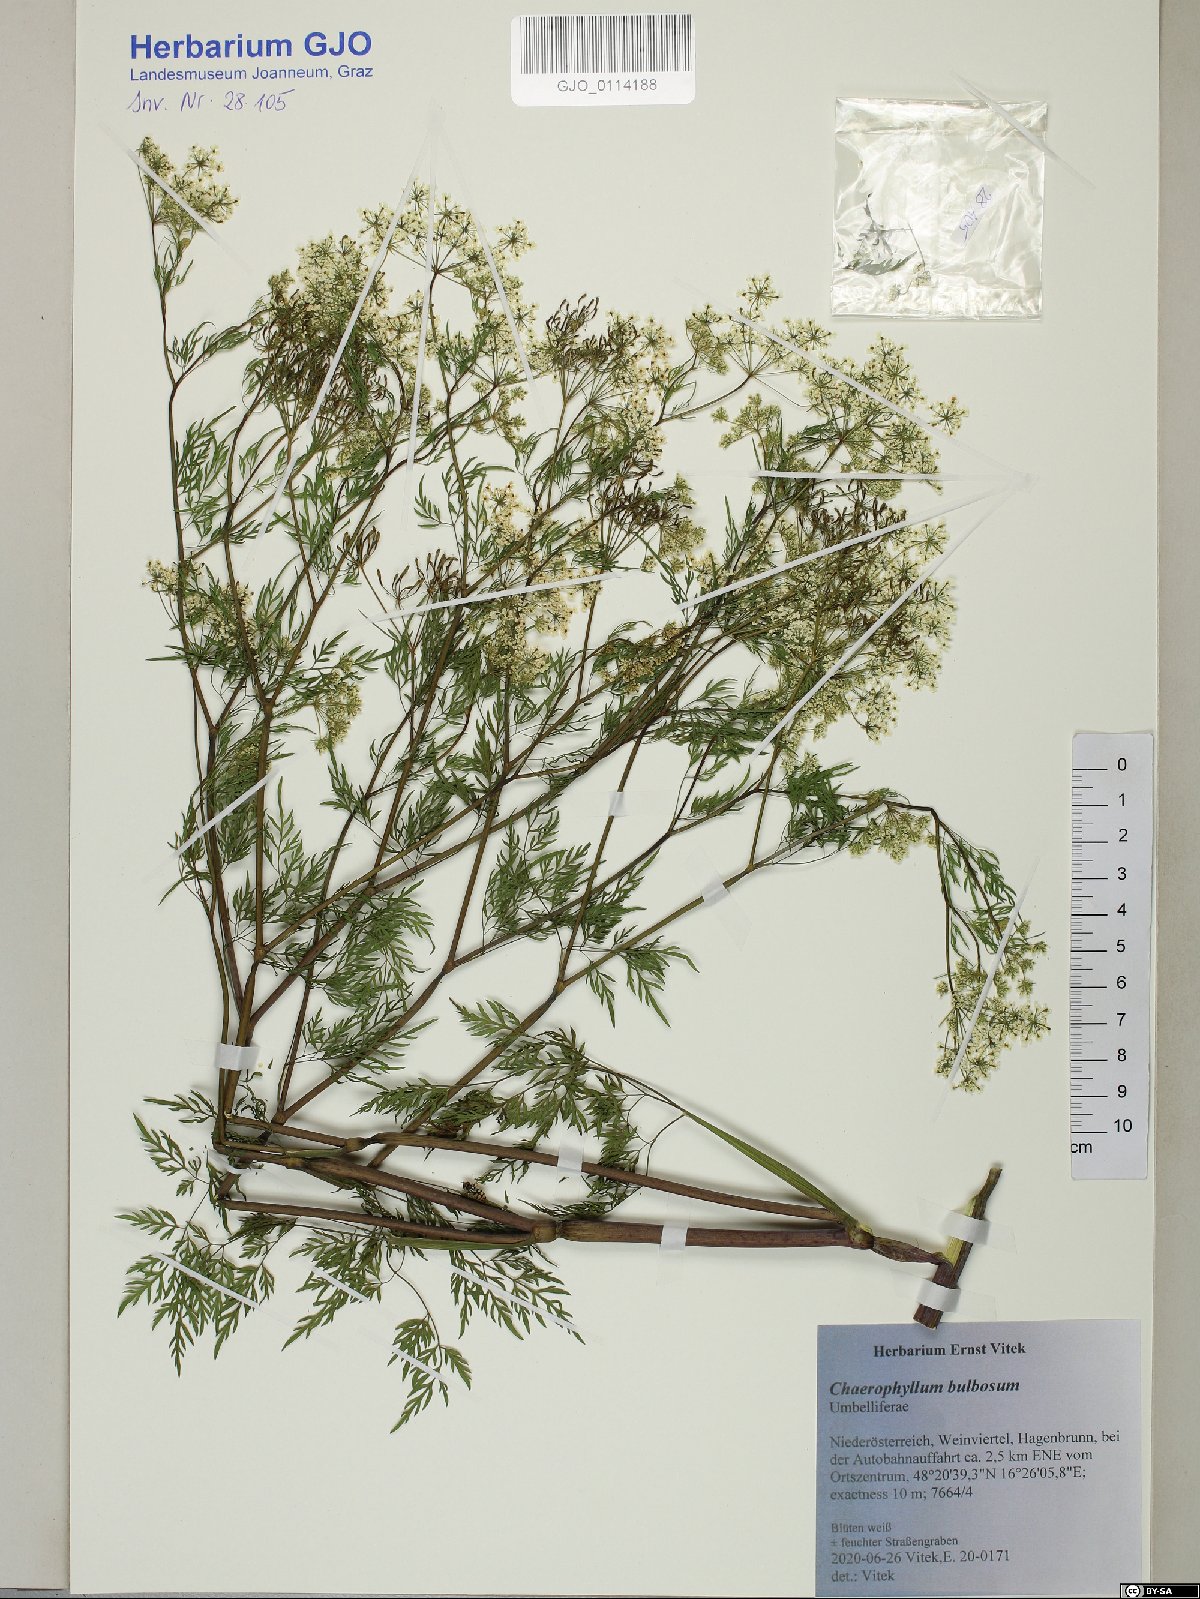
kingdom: Plantae
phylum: Tracheophyta
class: Magnoliopsida
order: Apiales
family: Apiaceae
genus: Chaerophyllum
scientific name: Chaerophyllum bulbosum
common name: Bulbous chervil
